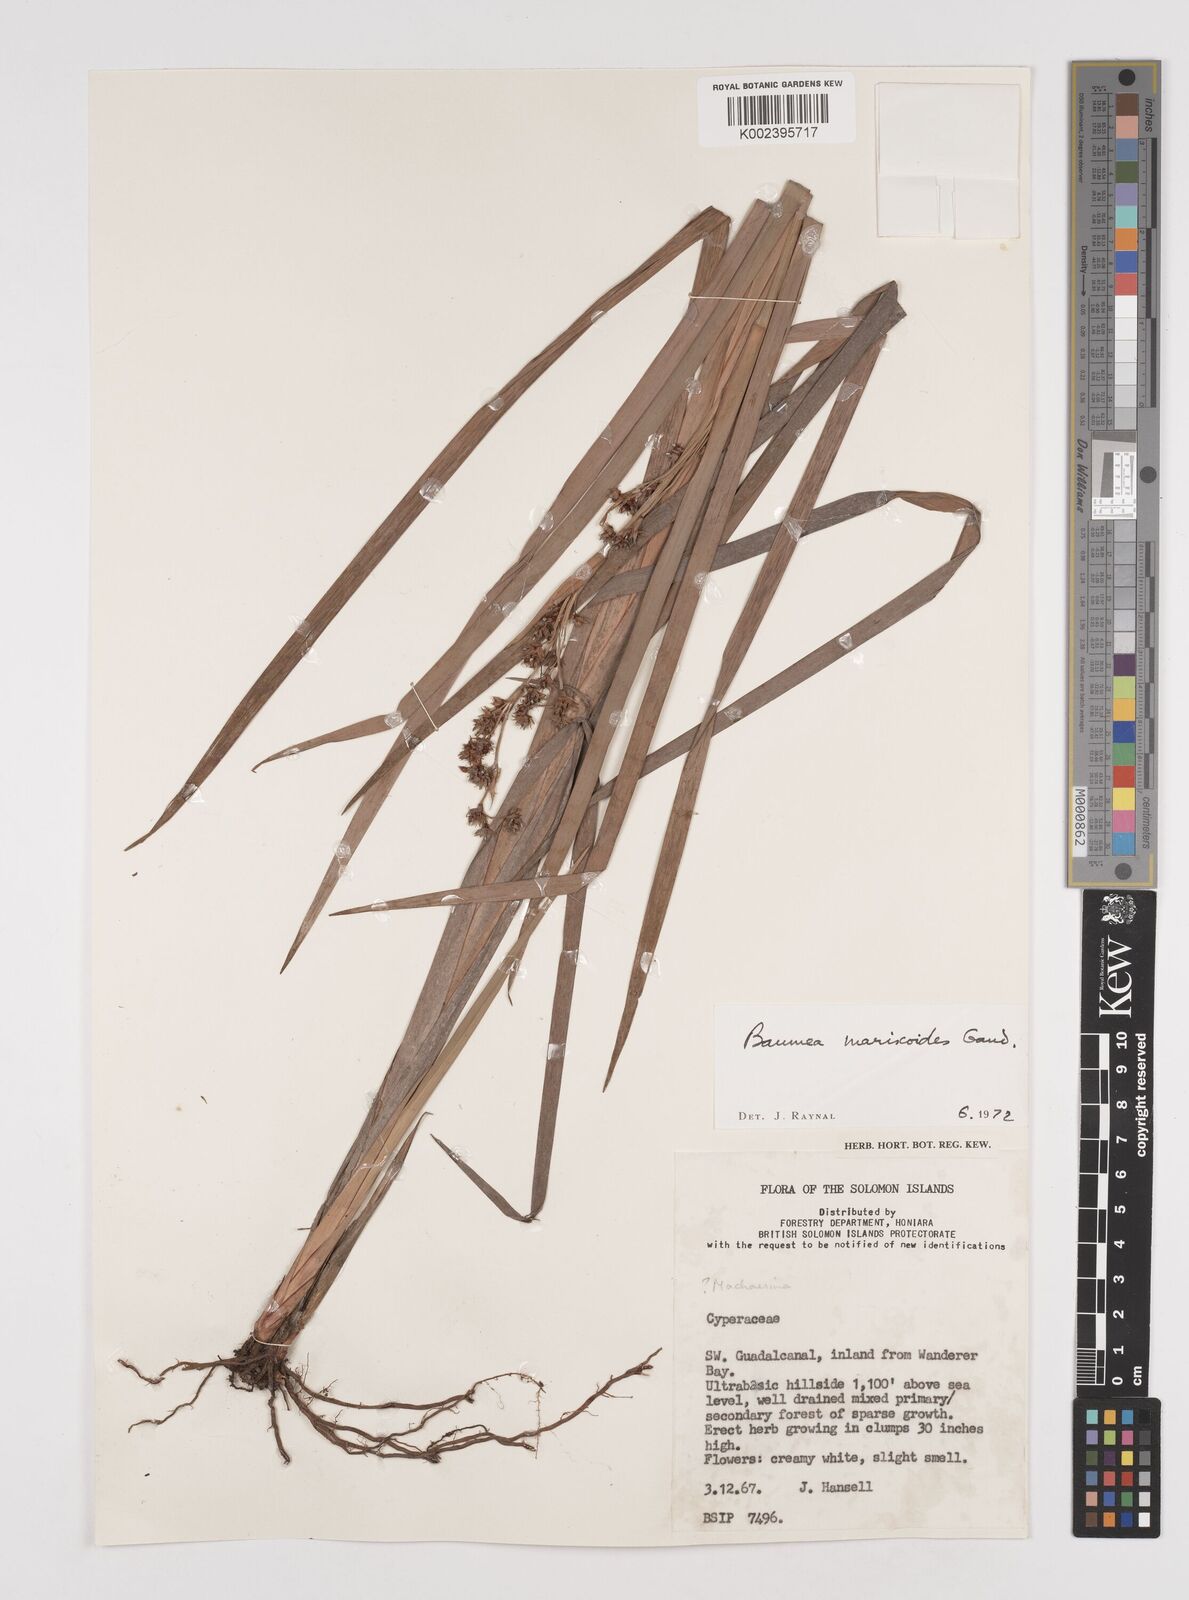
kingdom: Plantae
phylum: Tracheophyta
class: Liliopsida
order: Poales
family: Cyperaceae
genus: Machaerina
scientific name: Machaerina mariscoides
